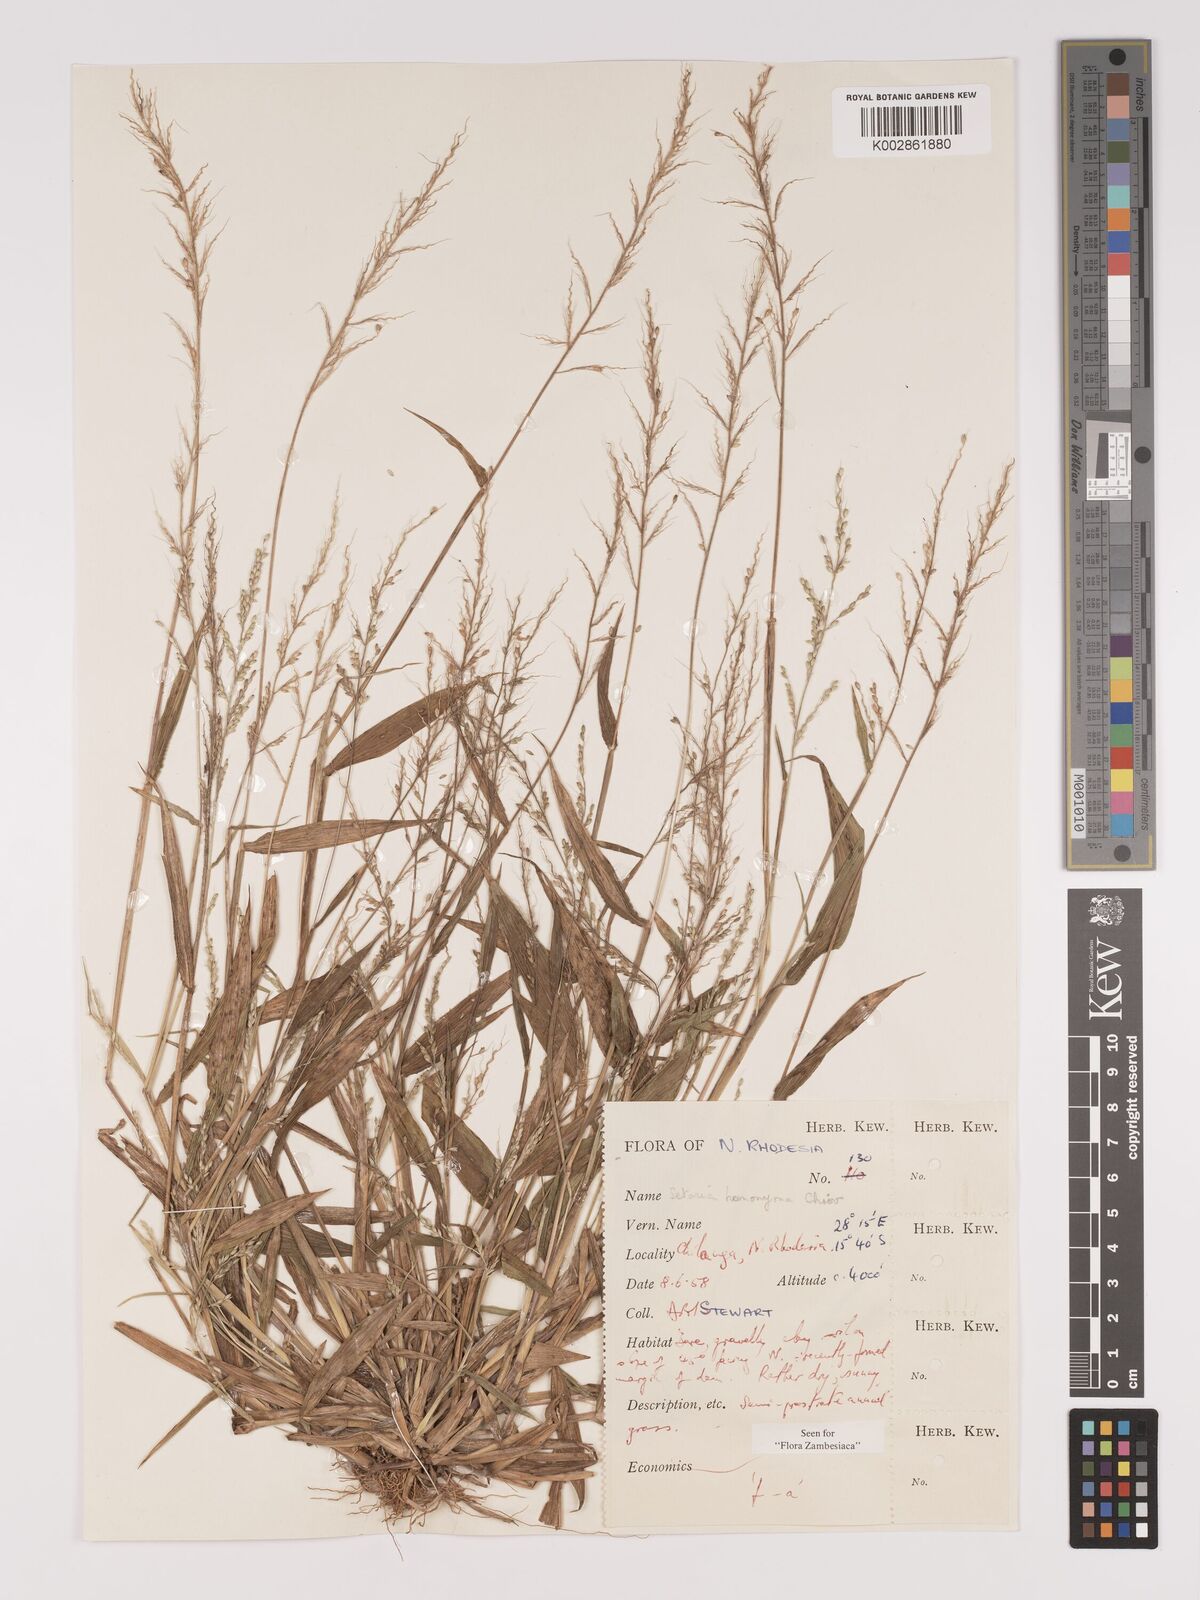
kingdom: Plantae
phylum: Tracheophyta
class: Liliopsida
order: Poales
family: Poaceae
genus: Setaria
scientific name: Setaria homonyma
